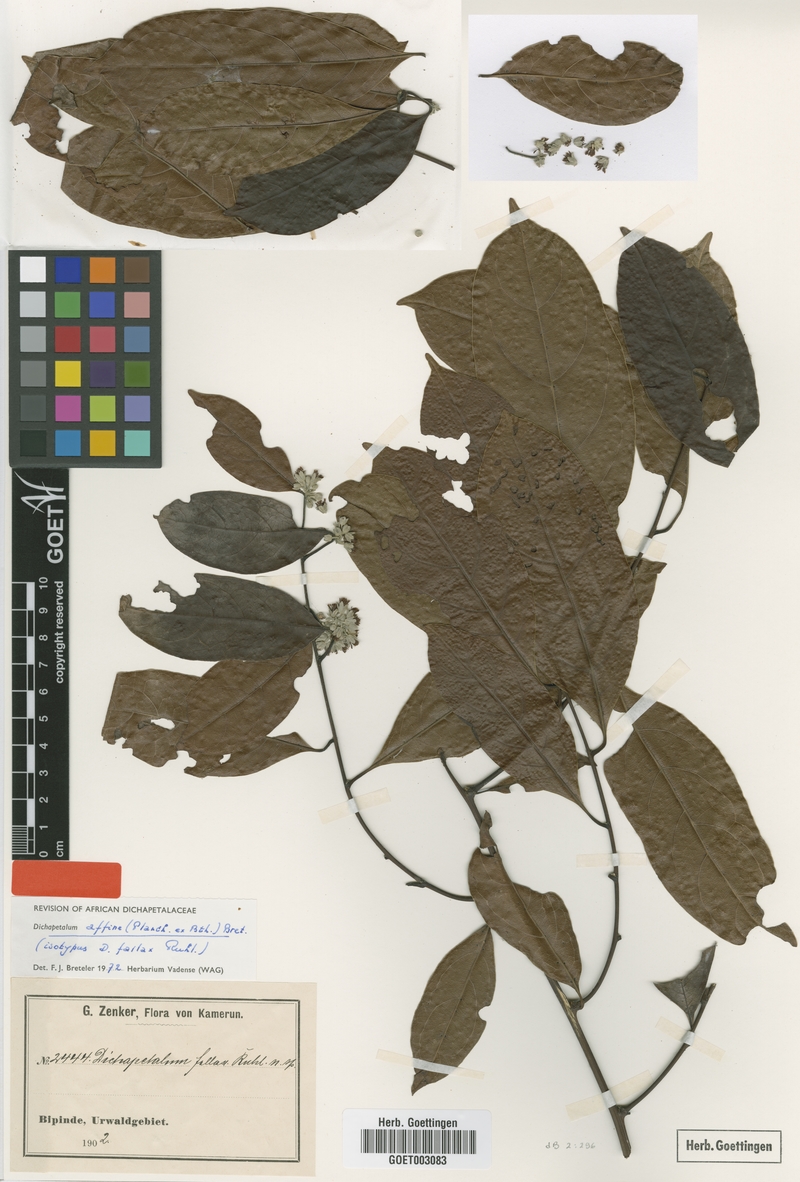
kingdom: Plantae
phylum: Tracheophyta
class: Magnoliopsida
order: Malpighiales
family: Dichapetalaceae
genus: Dichapetalum
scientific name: Dichapetalum affine
